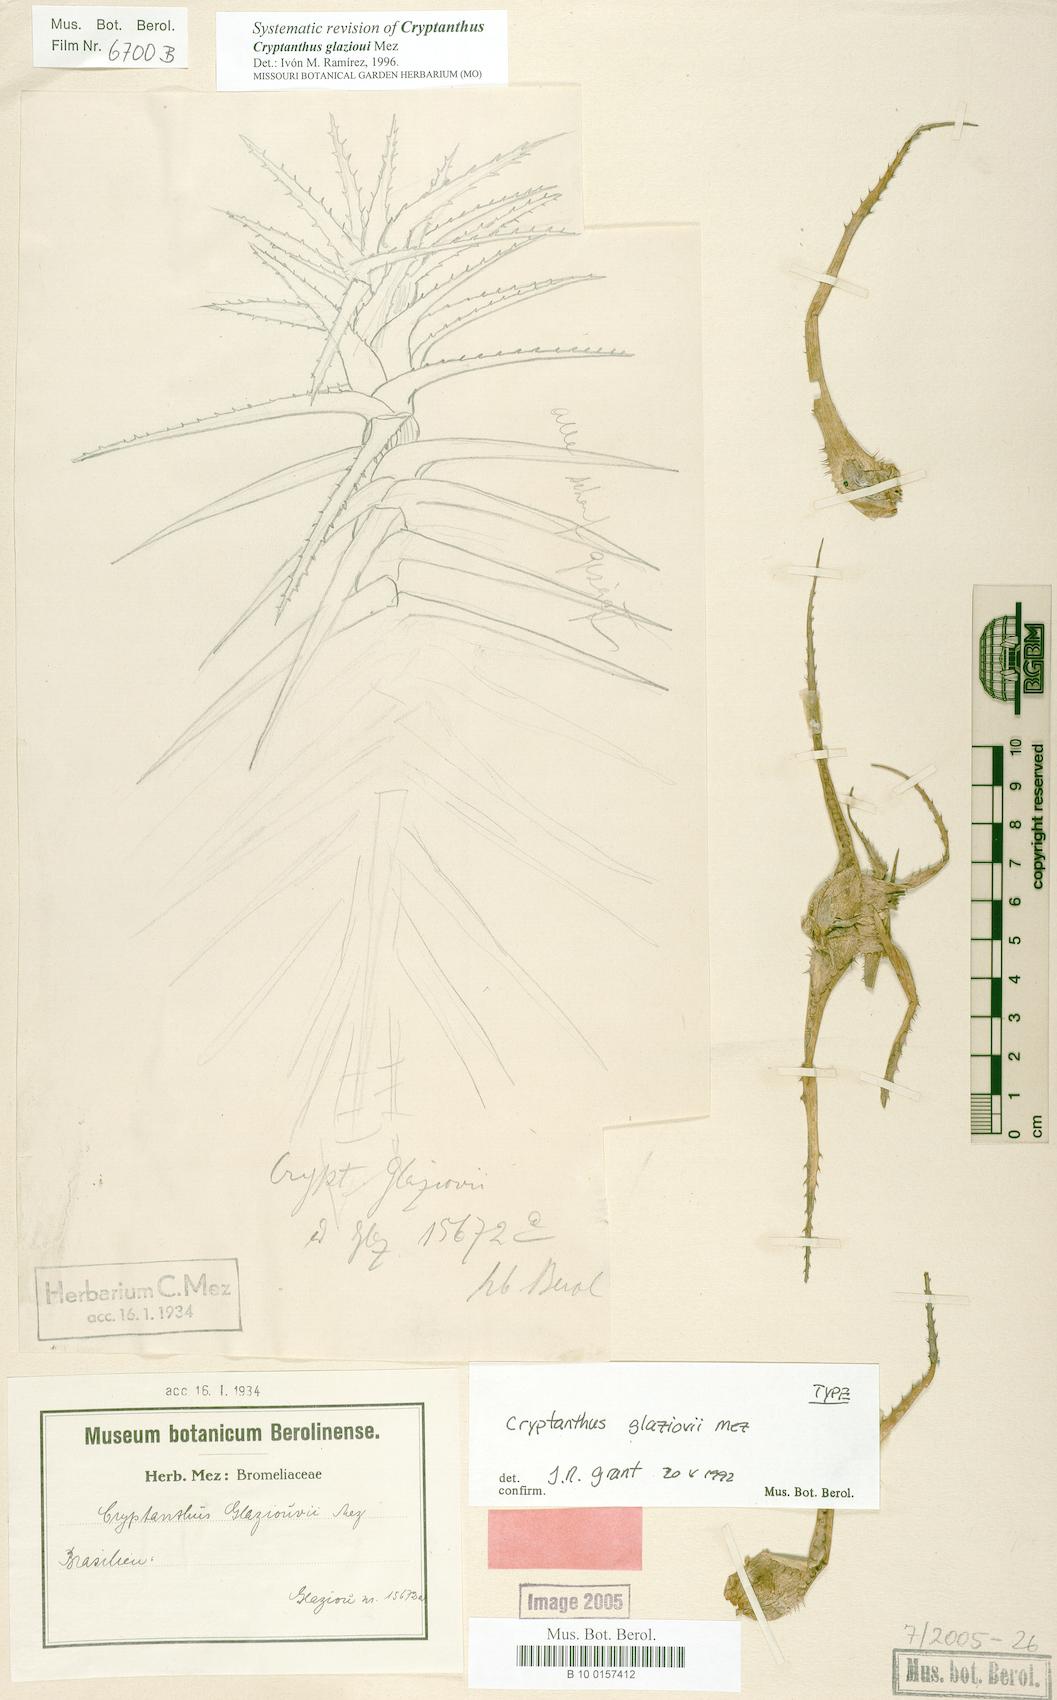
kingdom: Plantae
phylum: Tracheophyta
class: Liliopsida
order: Poales
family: Bromeliaceae
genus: Hoplocryptanthus
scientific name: Hoplocryptanthus glaziovii
